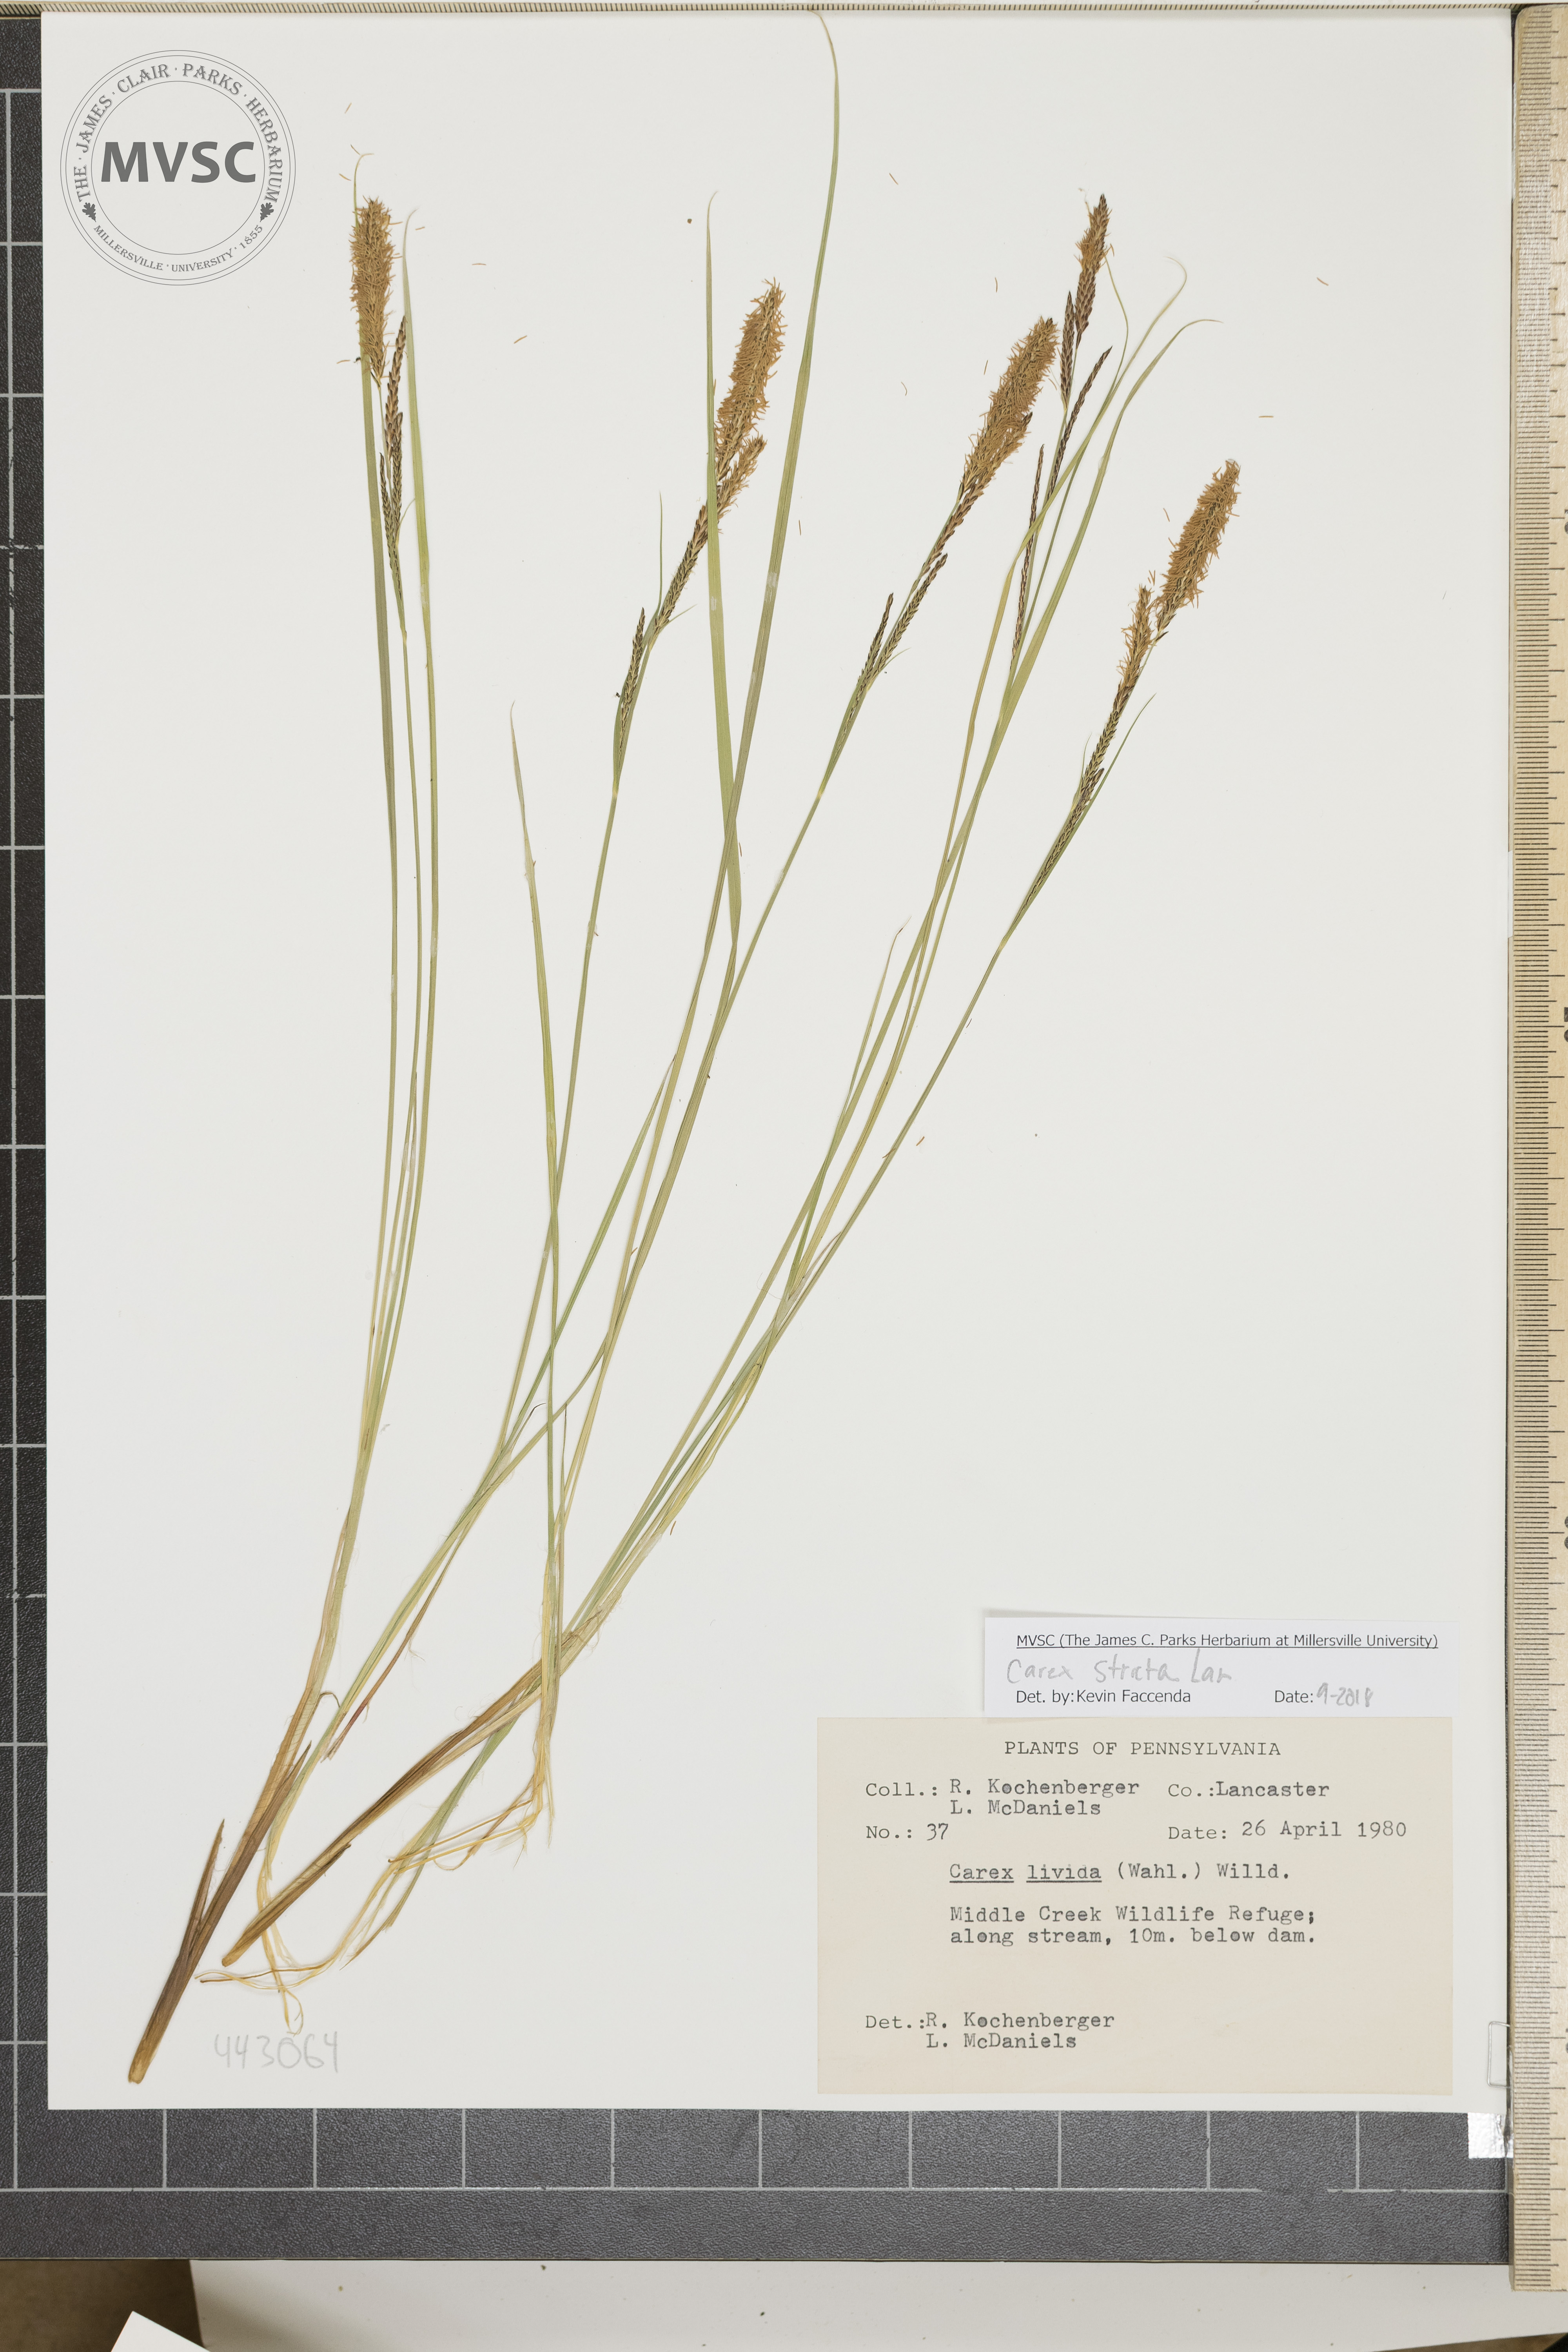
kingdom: Plantae
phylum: Tracheophyta
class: Liliopsida
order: Poales
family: Cyperaceae
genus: Carex
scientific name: Carex stricta
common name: Hummock sedge
